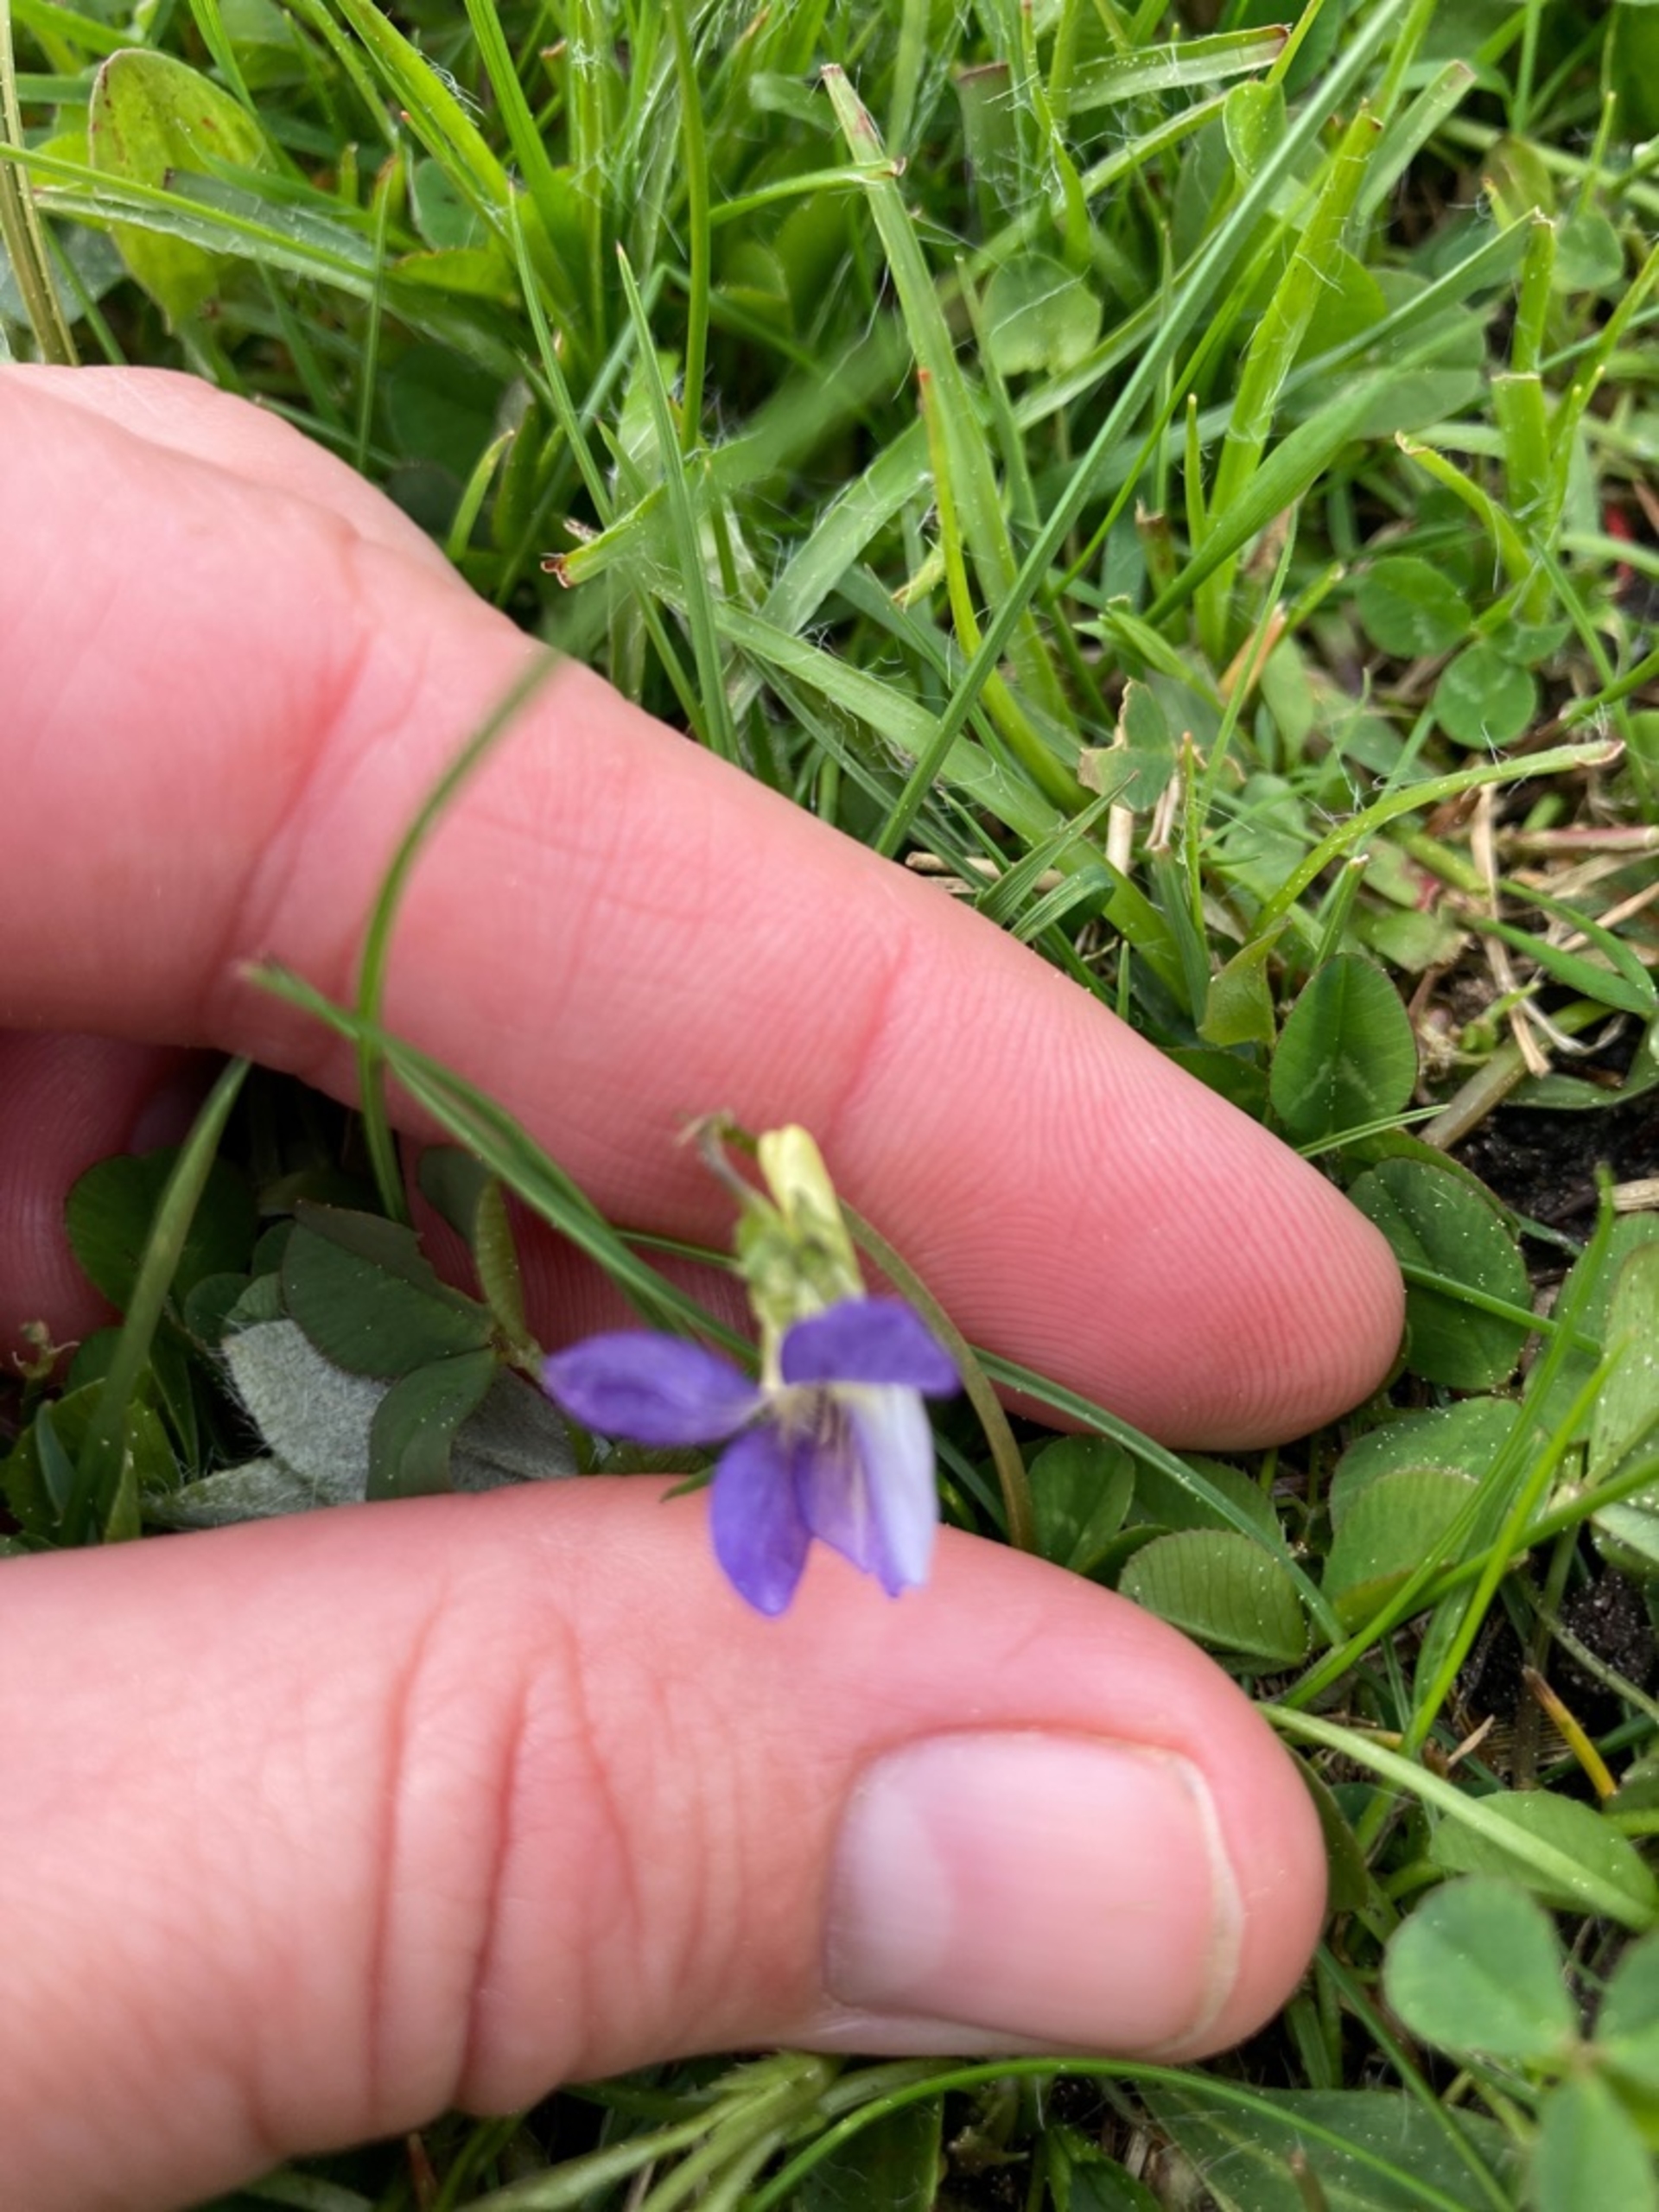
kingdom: Plantae
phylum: Tracheophyta
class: Magnoliopsida
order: Malpighiales
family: Violaceae
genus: Viola
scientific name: Viola canina
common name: Hunde-viol
